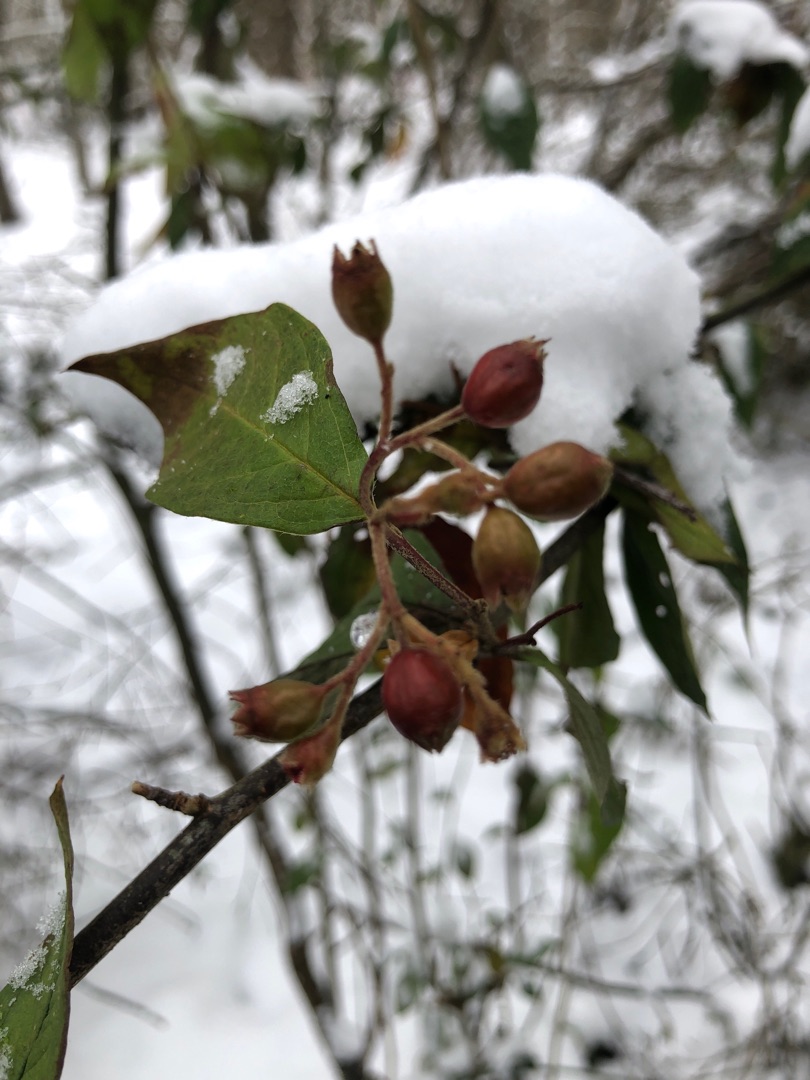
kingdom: Plantae
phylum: Tracheophyta
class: Magnoliopsida
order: Rosales
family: Rosaceae
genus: Cotoneaster
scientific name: Cotoneaster bullatus
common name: Buklet dværgmispel
